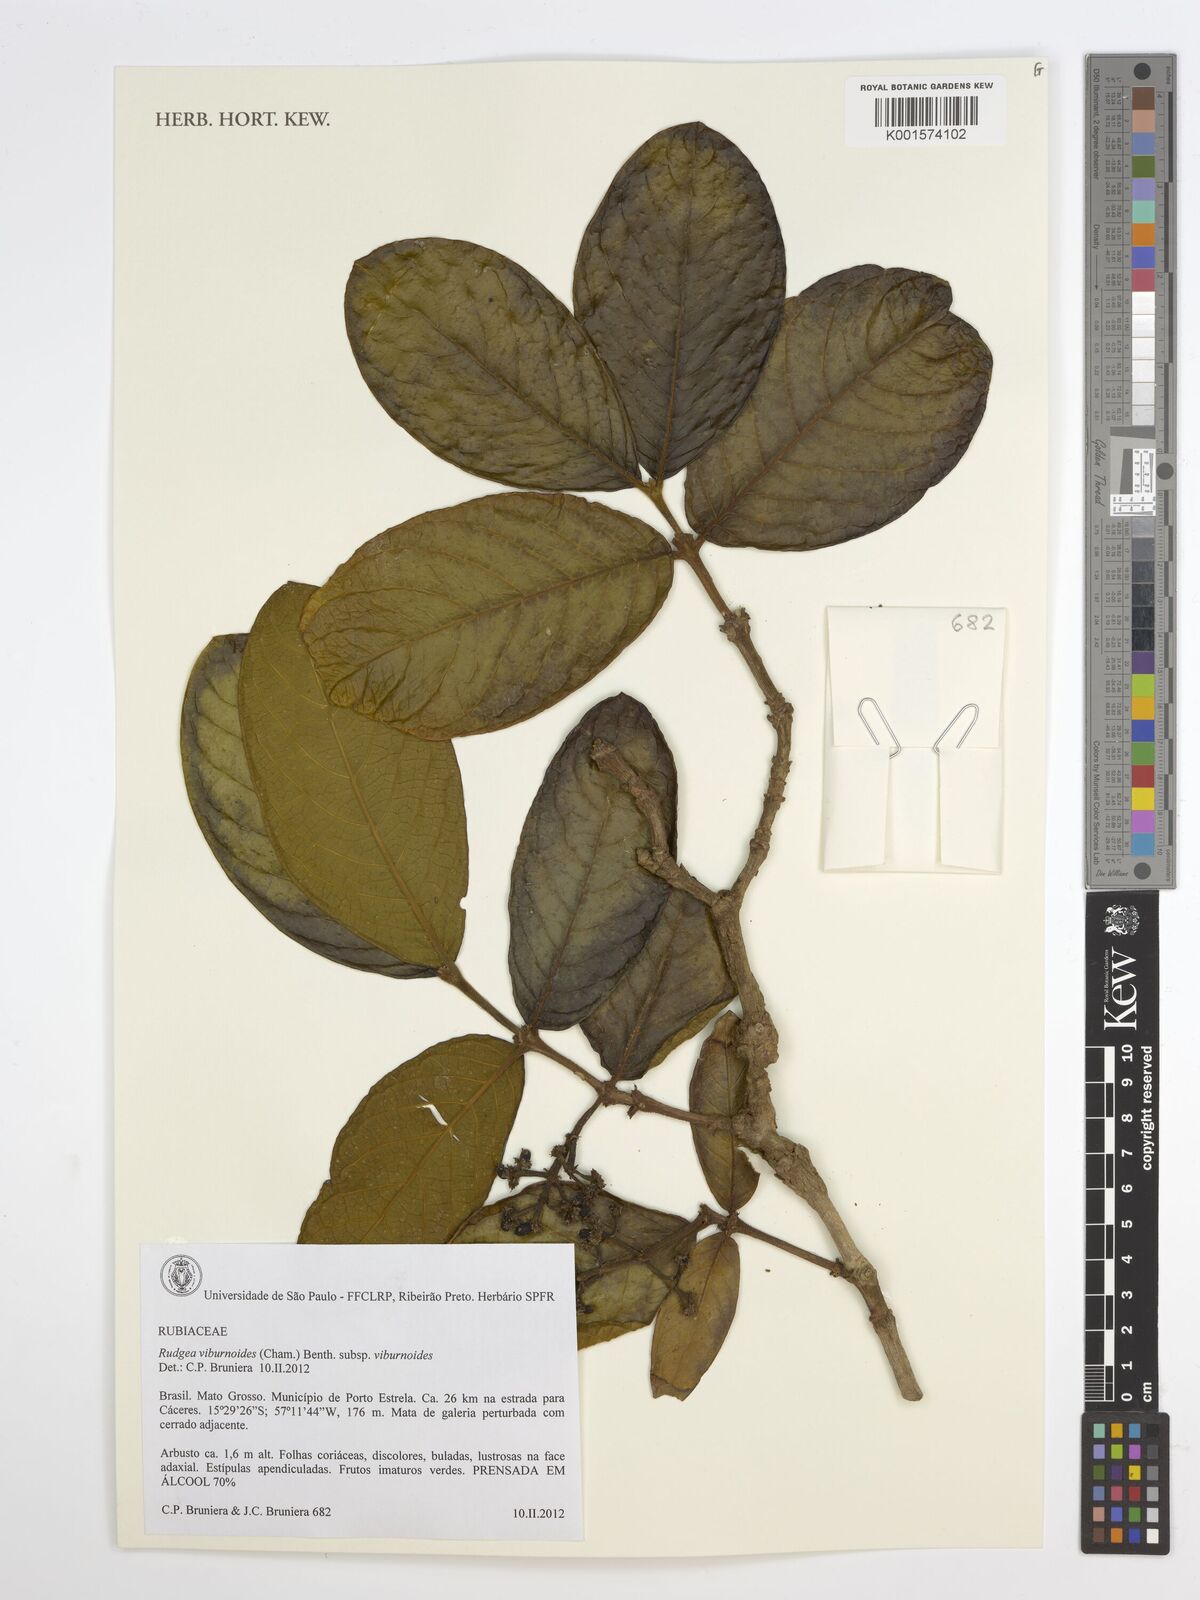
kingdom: Plantae
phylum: Tracheophyta
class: Magnoliopsida
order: Gentianales
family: Rubiaceae
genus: Rudgea
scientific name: Rudgea viburnoides
